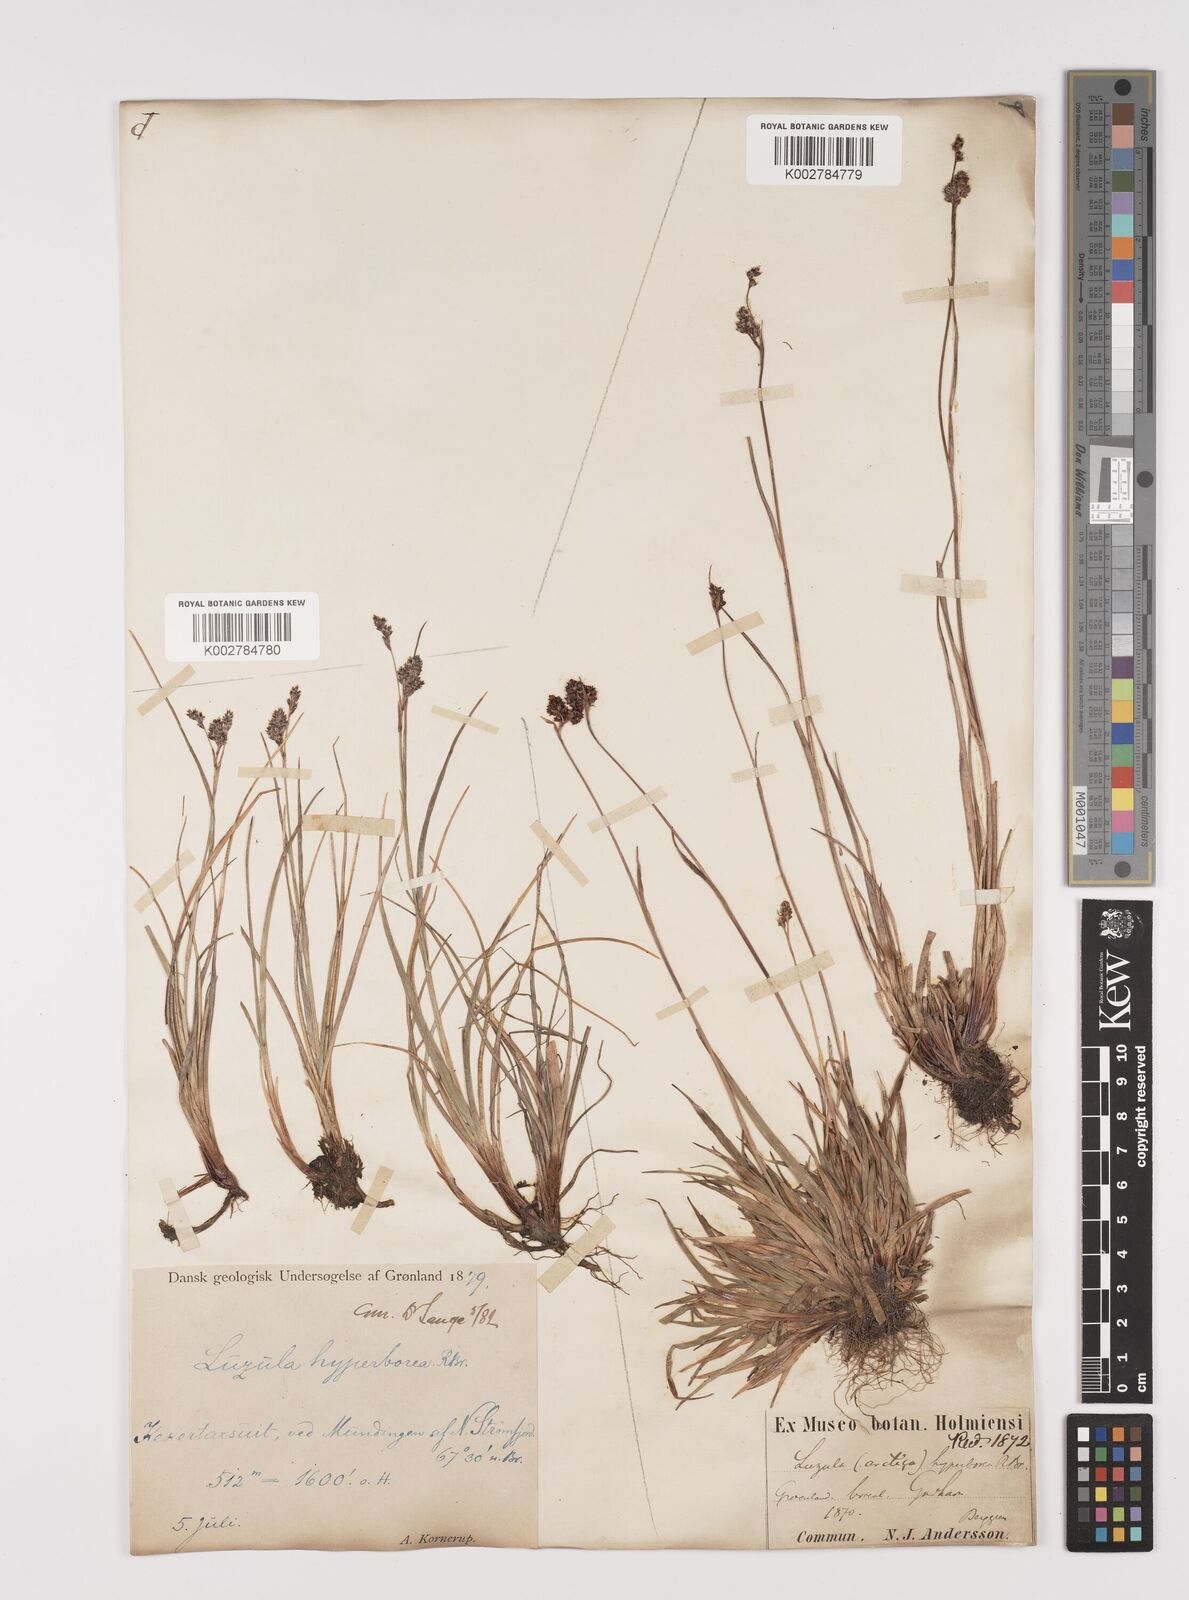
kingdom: Plantae
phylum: Tracheophyta
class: Liliopsida
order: Poales
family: Juncaceae
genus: Luzula
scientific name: Luzula confusa
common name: Northern wood rush
